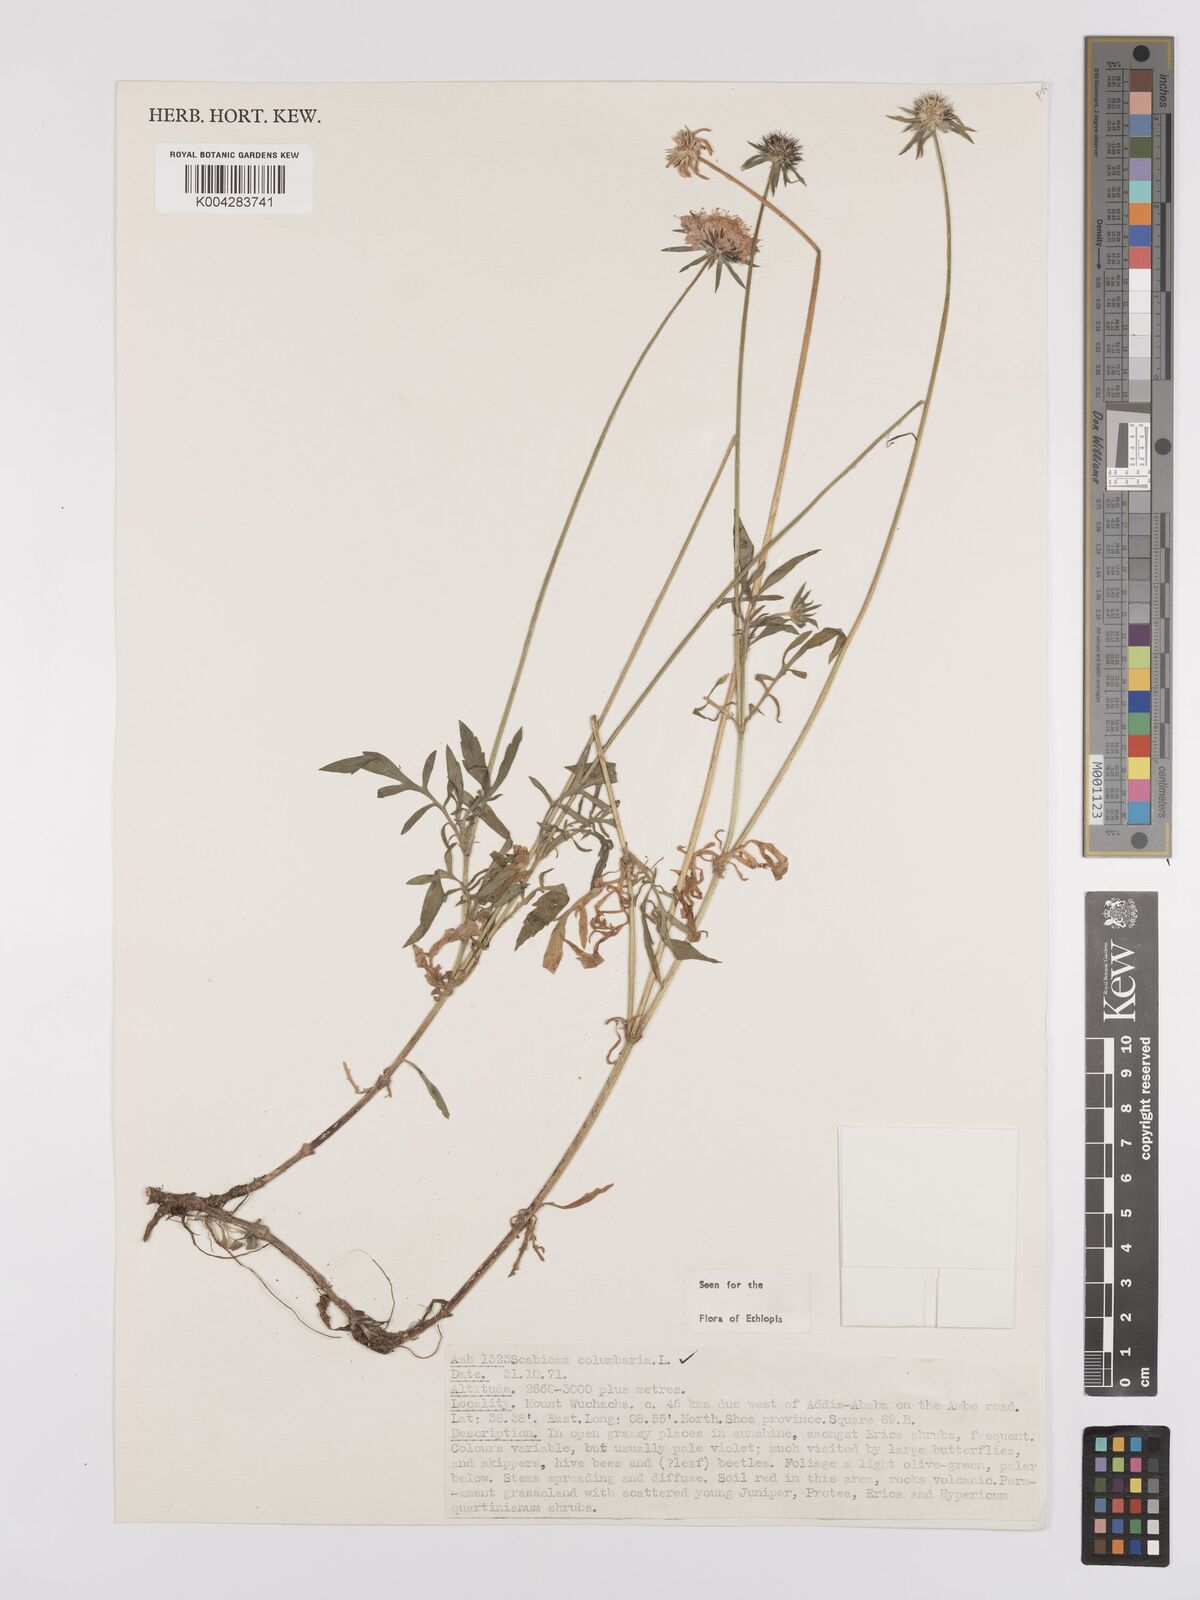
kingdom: Plantae
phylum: Tracheophyta
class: Magnoliopsida
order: Dipsacales
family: Caprifoliaceae
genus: Scabiosa
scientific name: Scabiosa columbaria
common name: Small scabious
